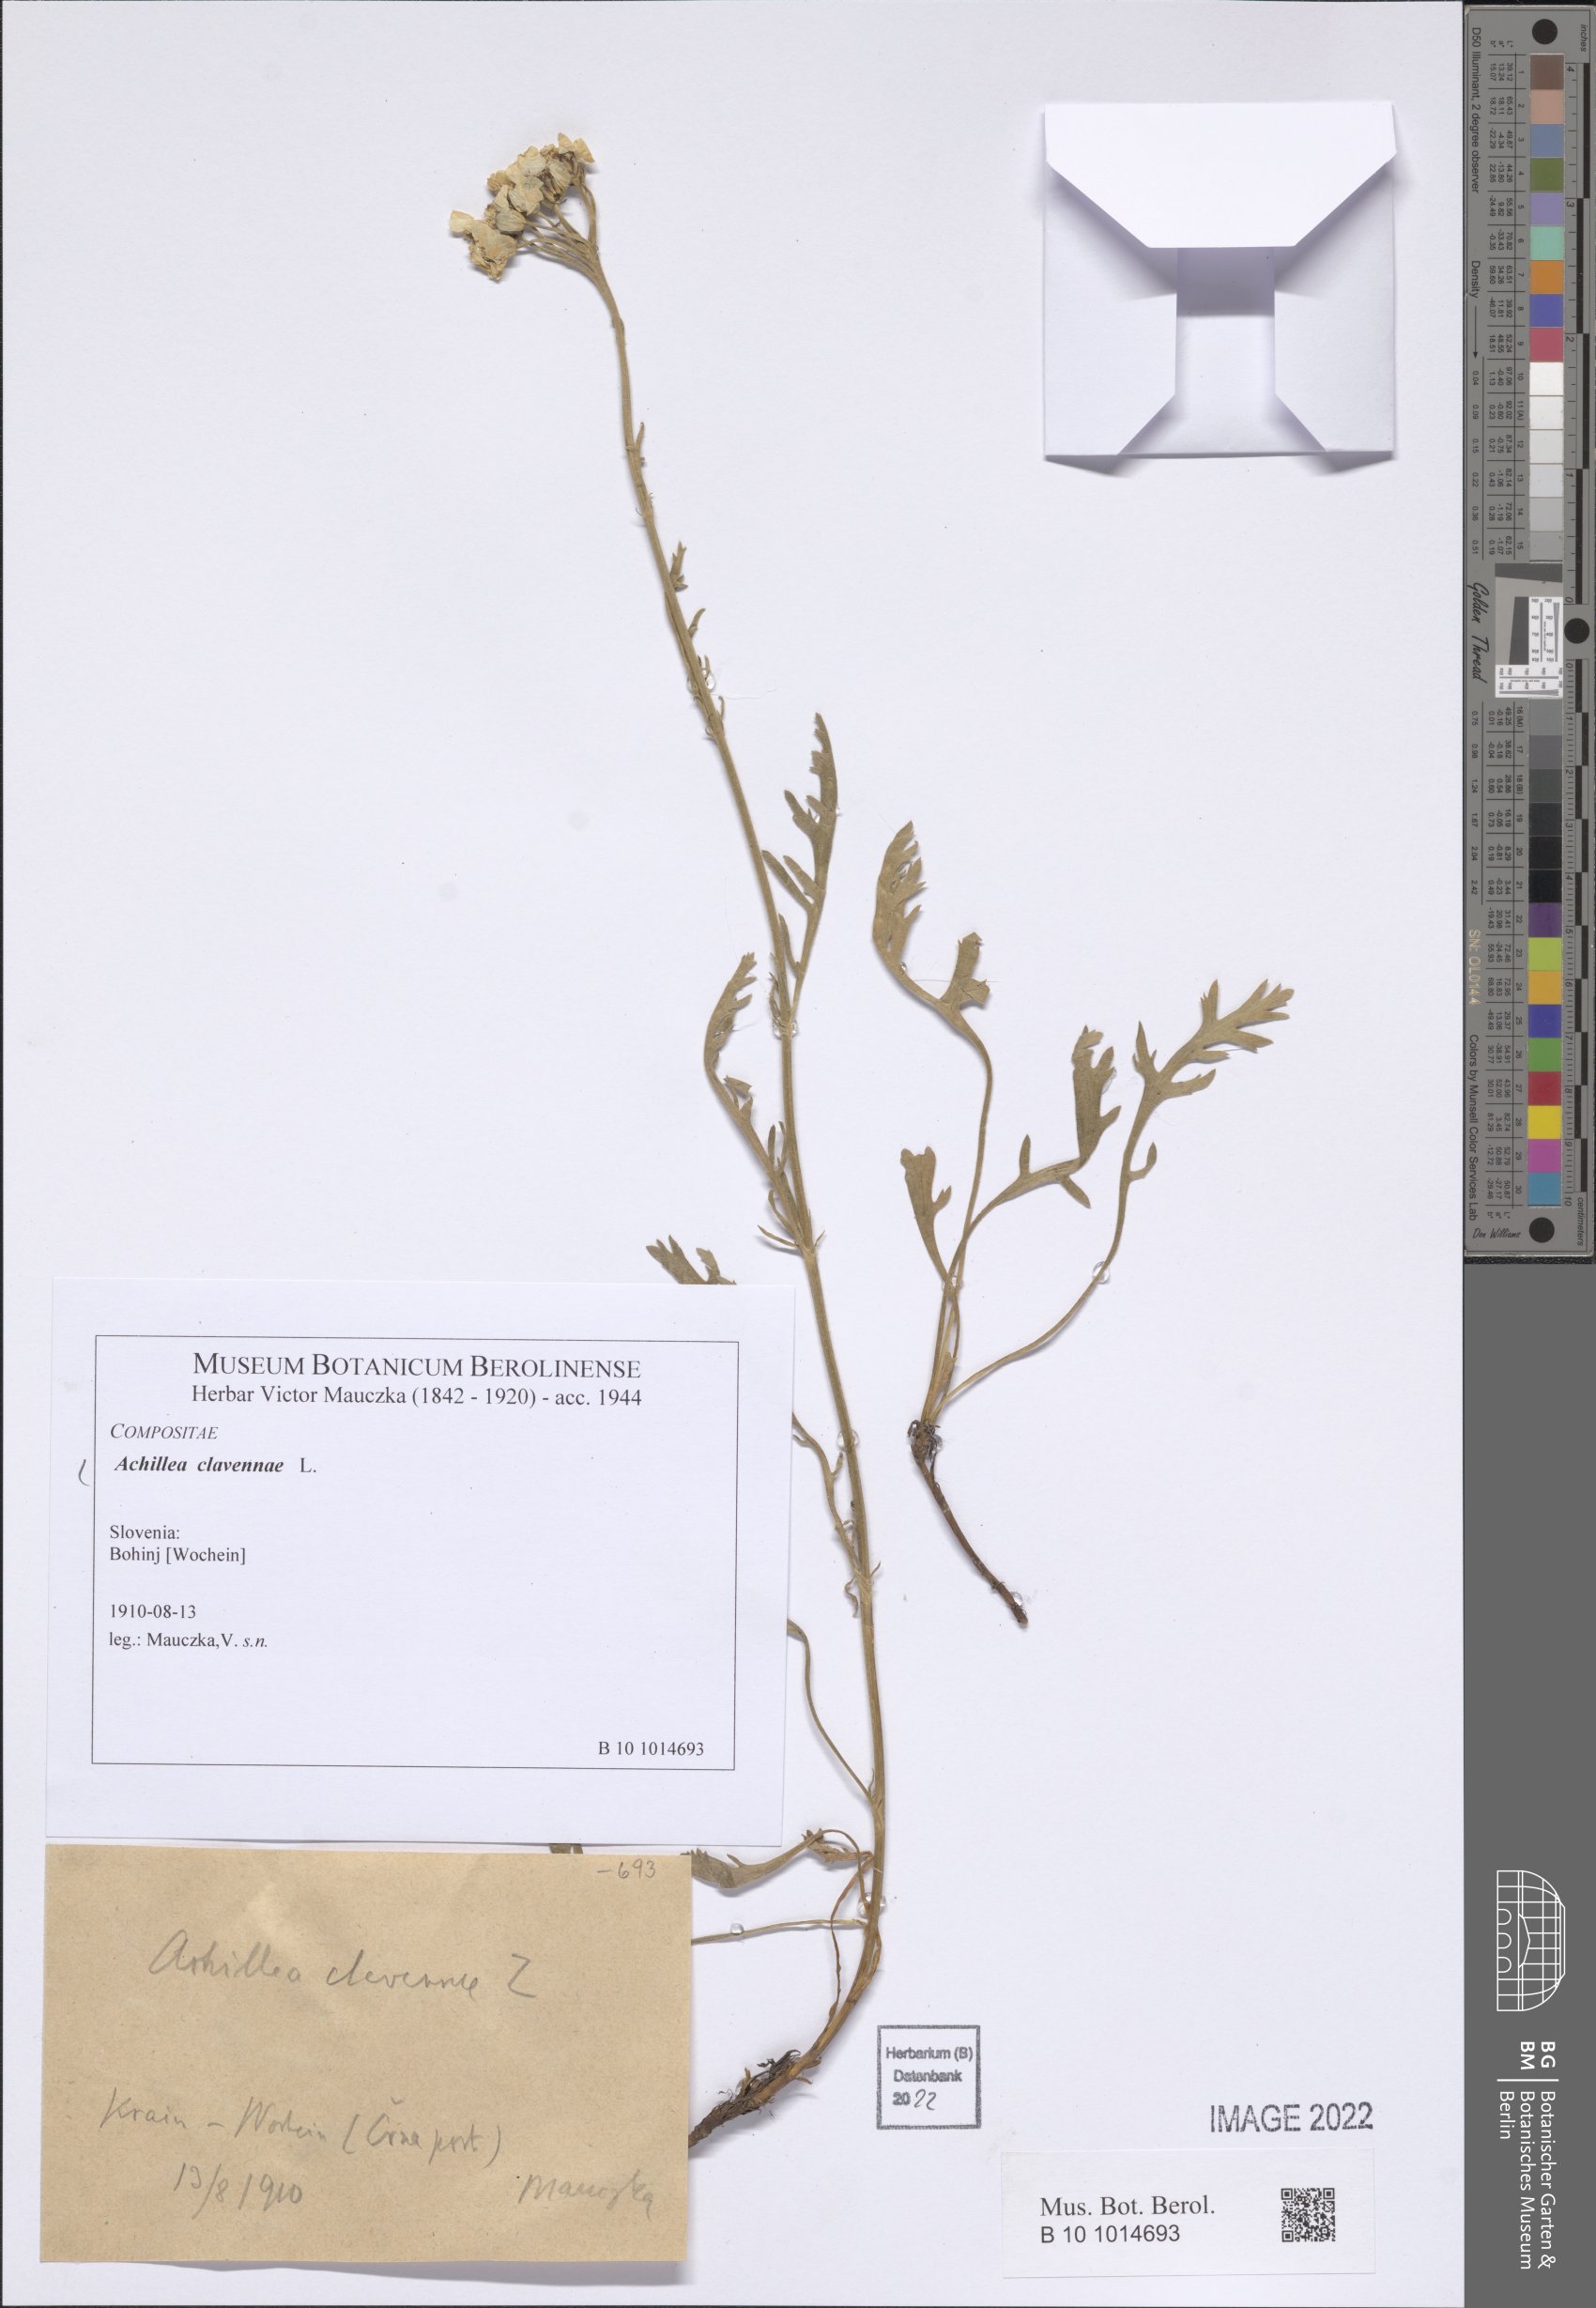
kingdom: Plantae
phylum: Tracheophyta
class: Magnoliopsida
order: Asterales
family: Asteraceae
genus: Achillea
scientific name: Achillea clavennae
